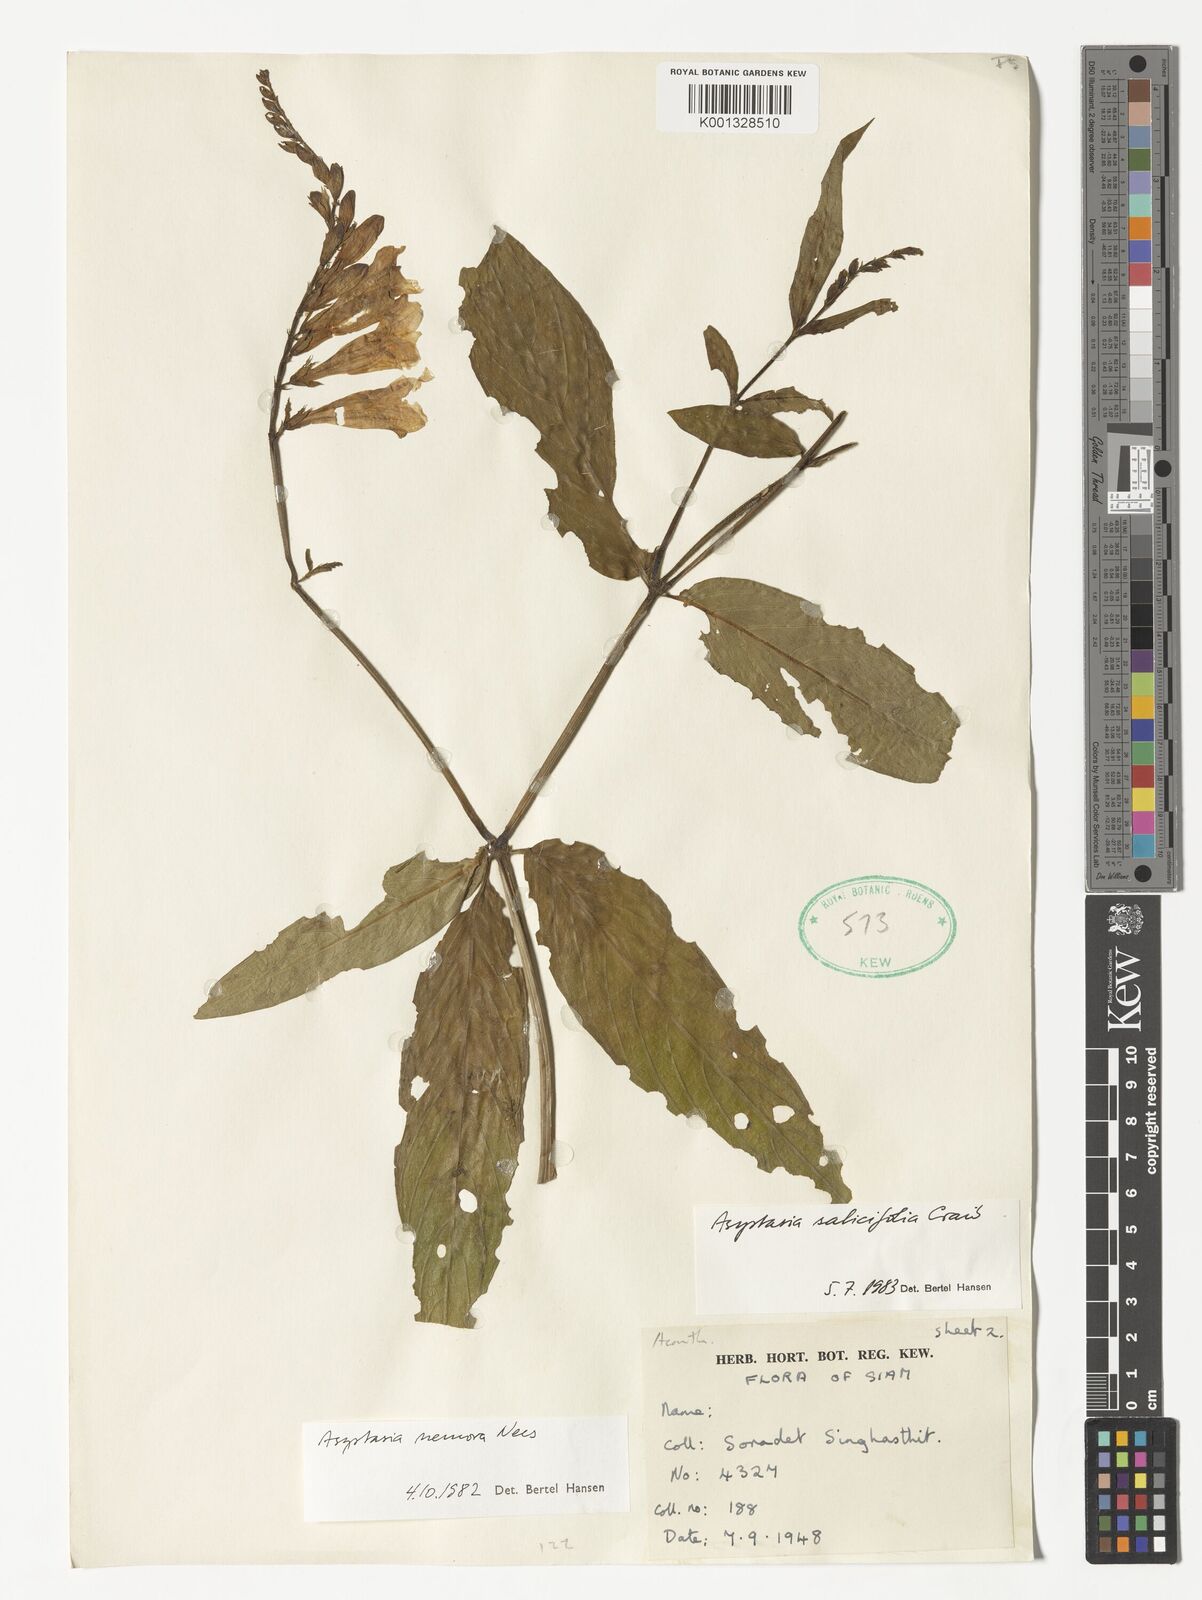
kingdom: Plantae
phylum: Tracheophyta
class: Magnoliopsida
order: Lamiales
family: Acanthaceae
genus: Asystasia
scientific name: Asystasia nemorum
